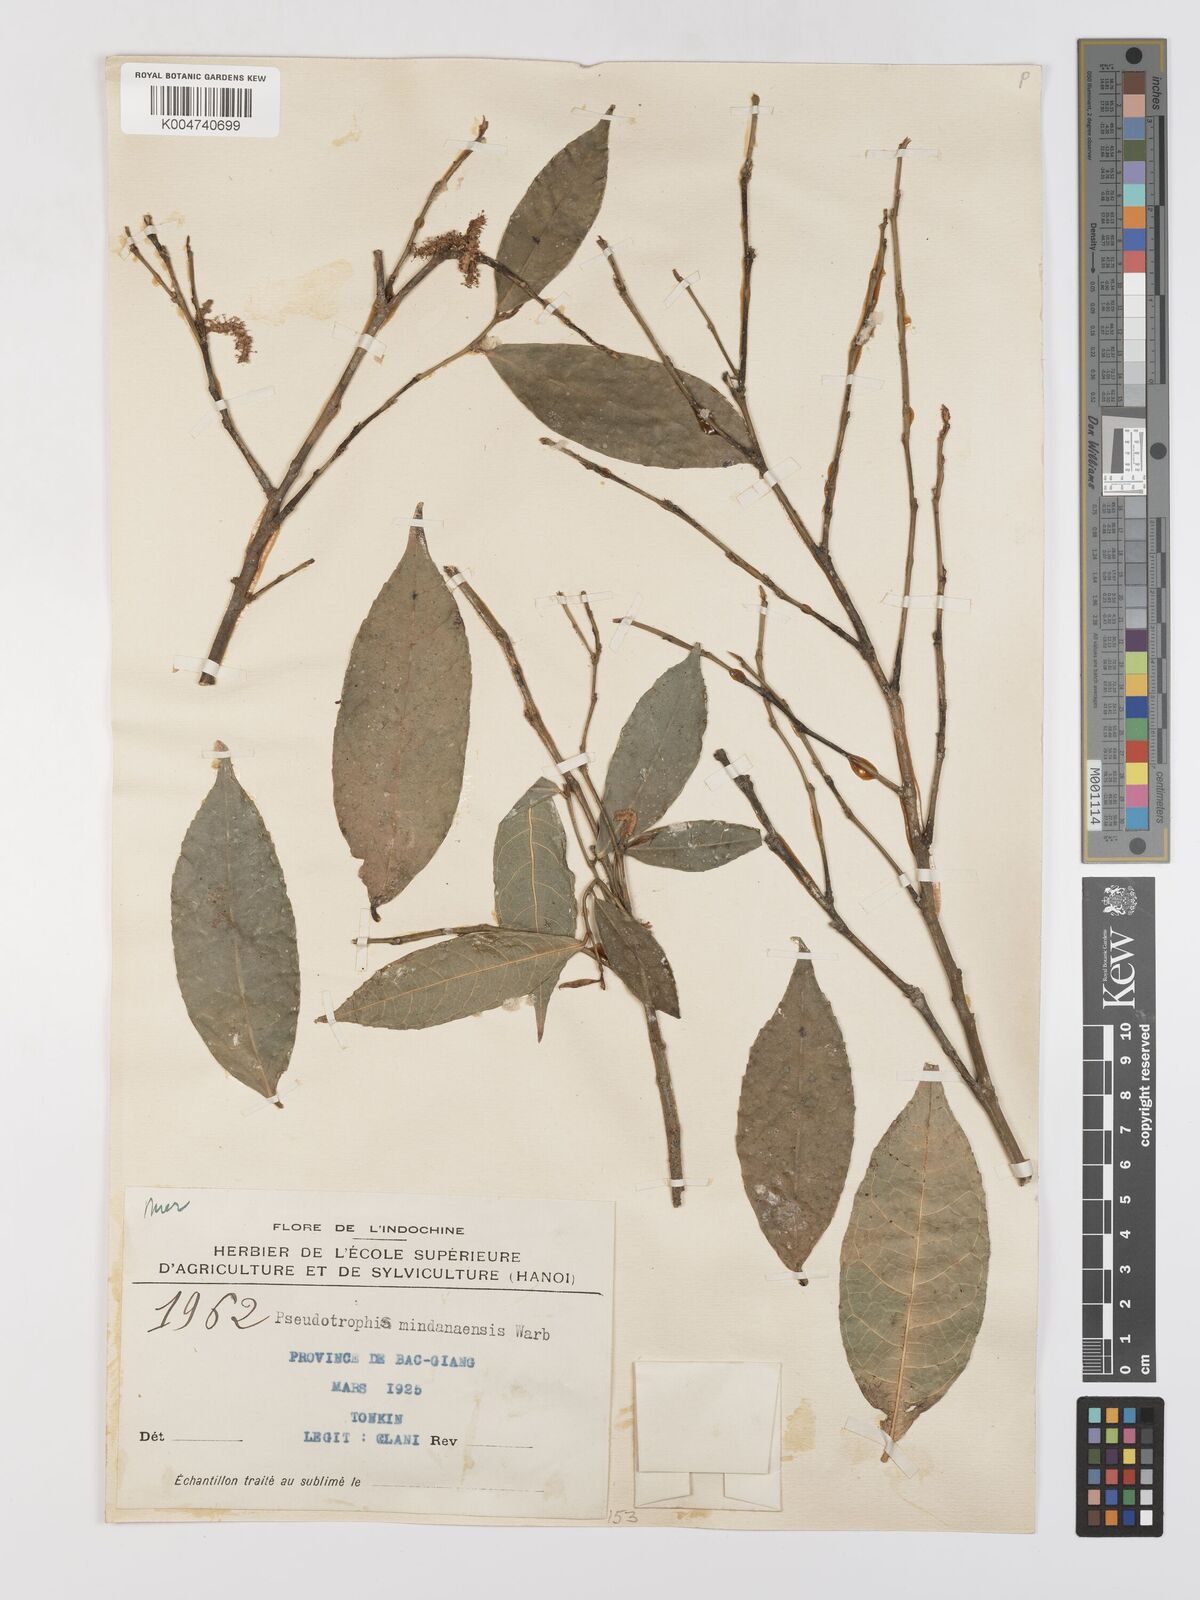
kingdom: Plantae
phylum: Tracheophyta
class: Magnoliopsida
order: Rosales
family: Moraceae
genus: Taxotrophis
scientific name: Taxotrophis macrophylla
